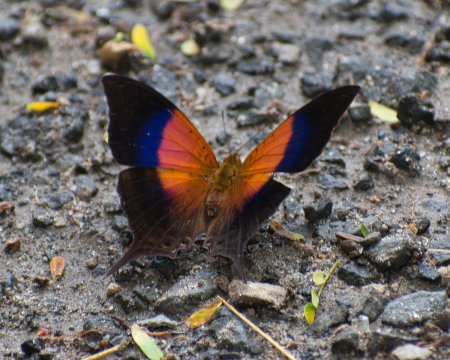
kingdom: Animalia
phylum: Arthropoda
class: Insecta
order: Lepidoptera
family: Nymphalidae
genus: Marpesia
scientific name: Marpesia furcula
